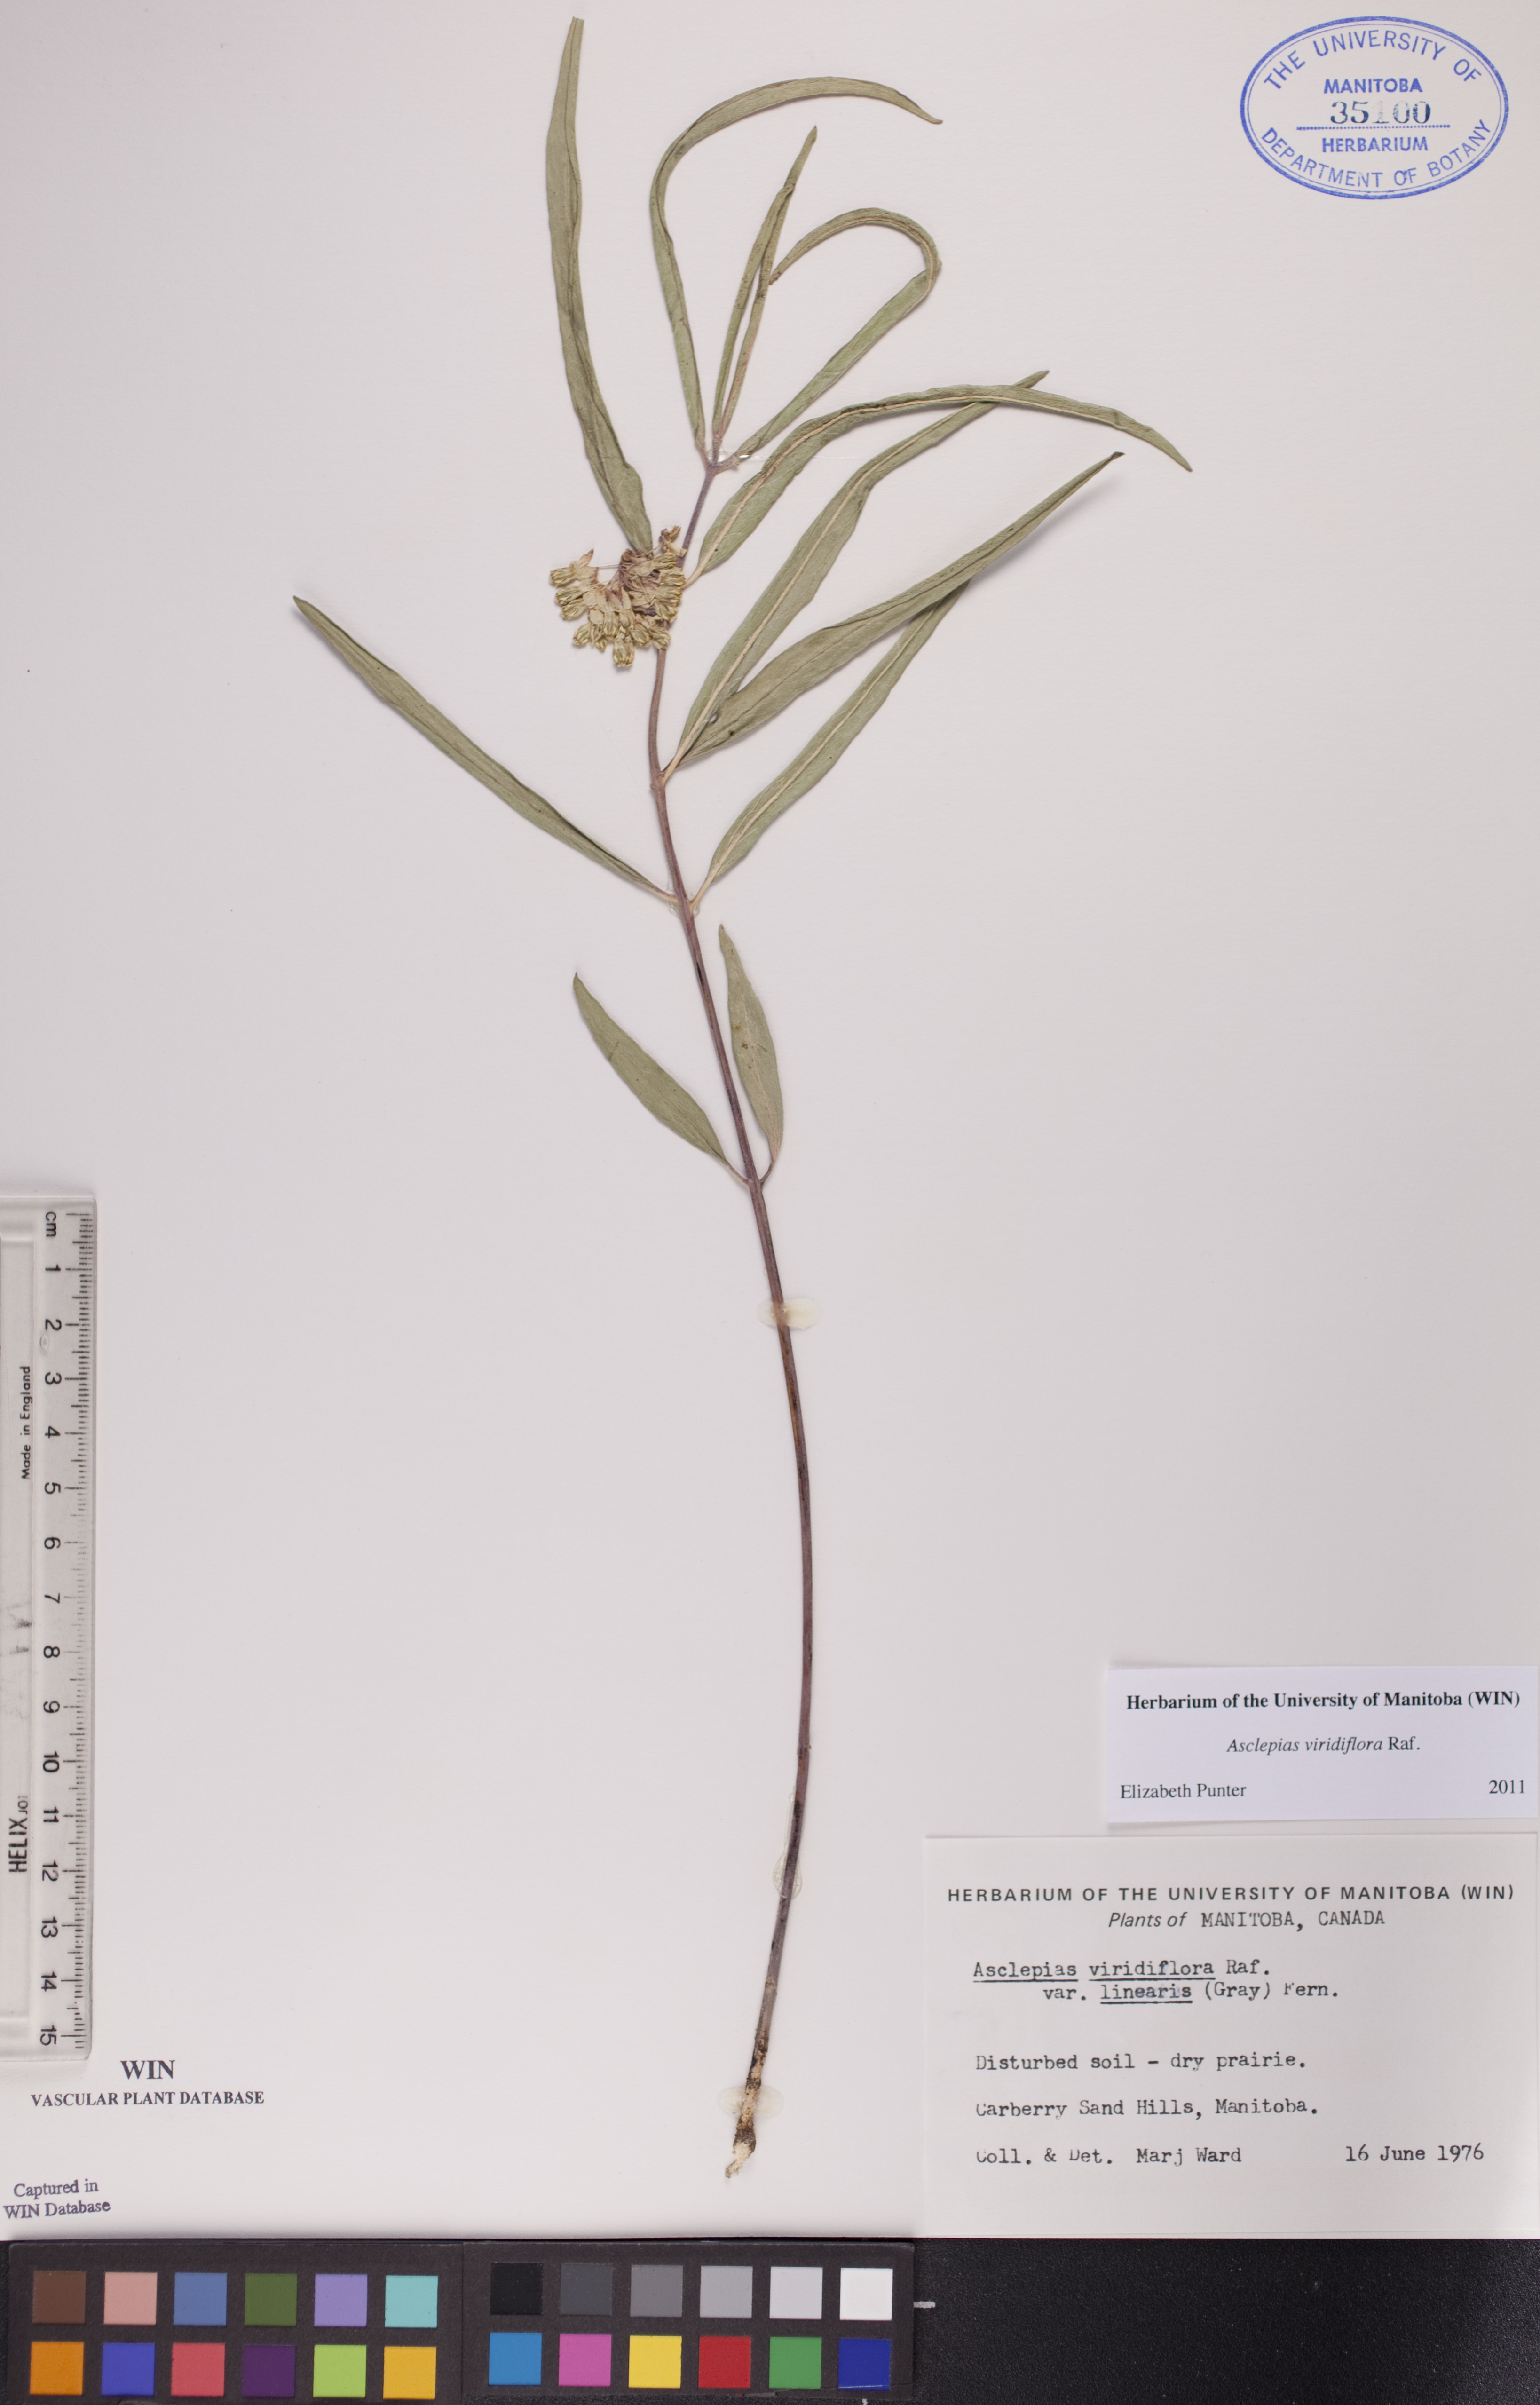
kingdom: Plantae
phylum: Tracheophyta
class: Magnoliopsida
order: Gentianales
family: Apocynaceae
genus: Asclepias
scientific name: Asclepias linearis
